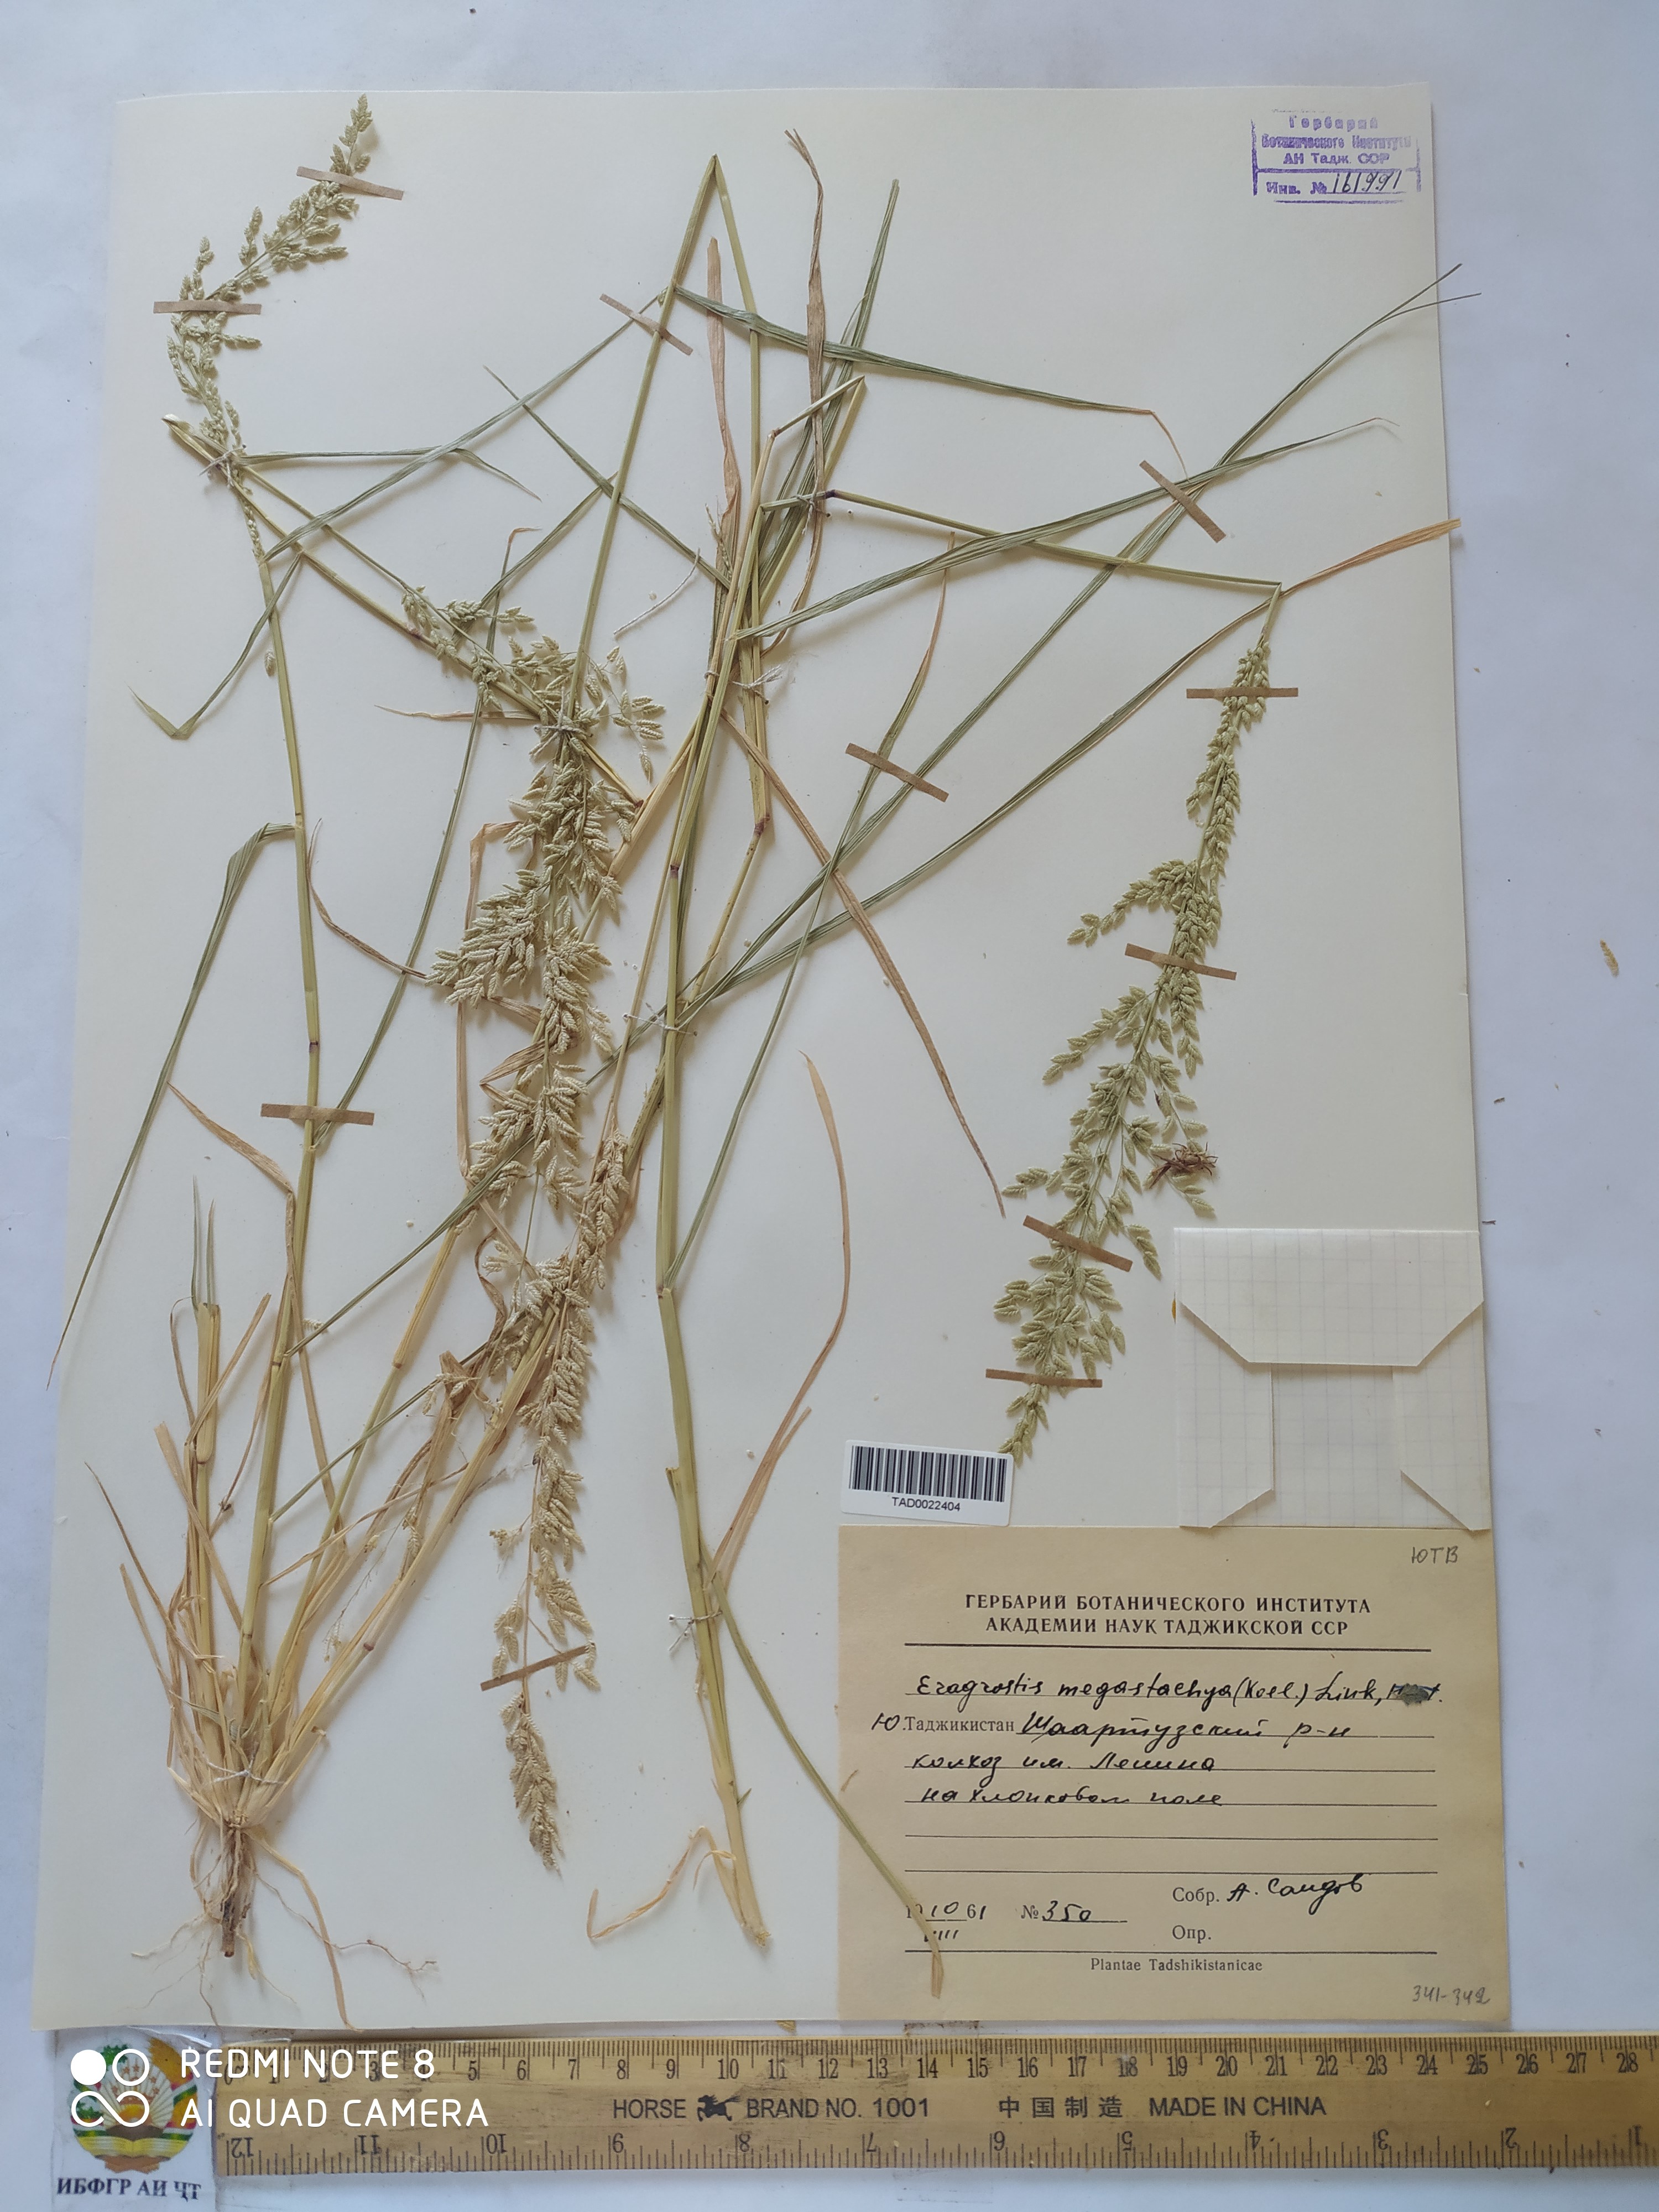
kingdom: Plantae
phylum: Tracheophyta
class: Liliopsida
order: Poales
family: Poaceae
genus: Eragrostis
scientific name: Eragrostis cilianensis
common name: Stinkgrass
